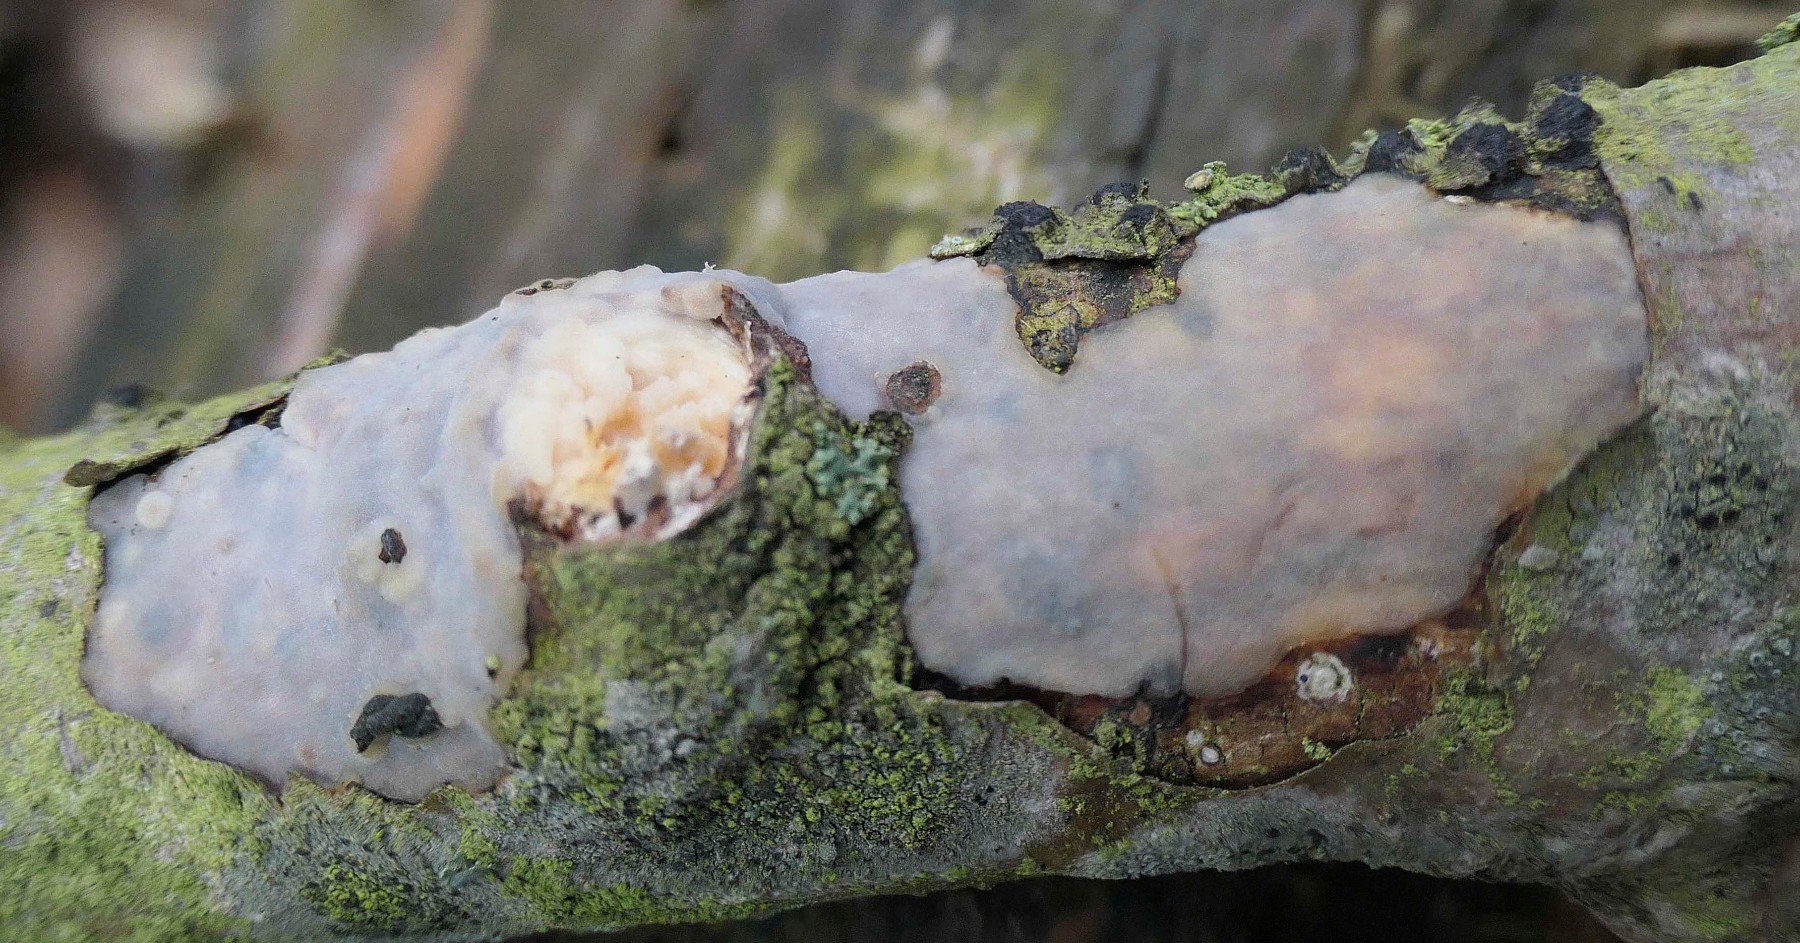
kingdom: Fungi
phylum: Basidiomycota
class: Agaricomycetes
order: Corticiales
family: Vuilleminiaceae
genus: Vuilleminia
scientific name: Vuilleminia comedens
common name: almindelig barksprænger
